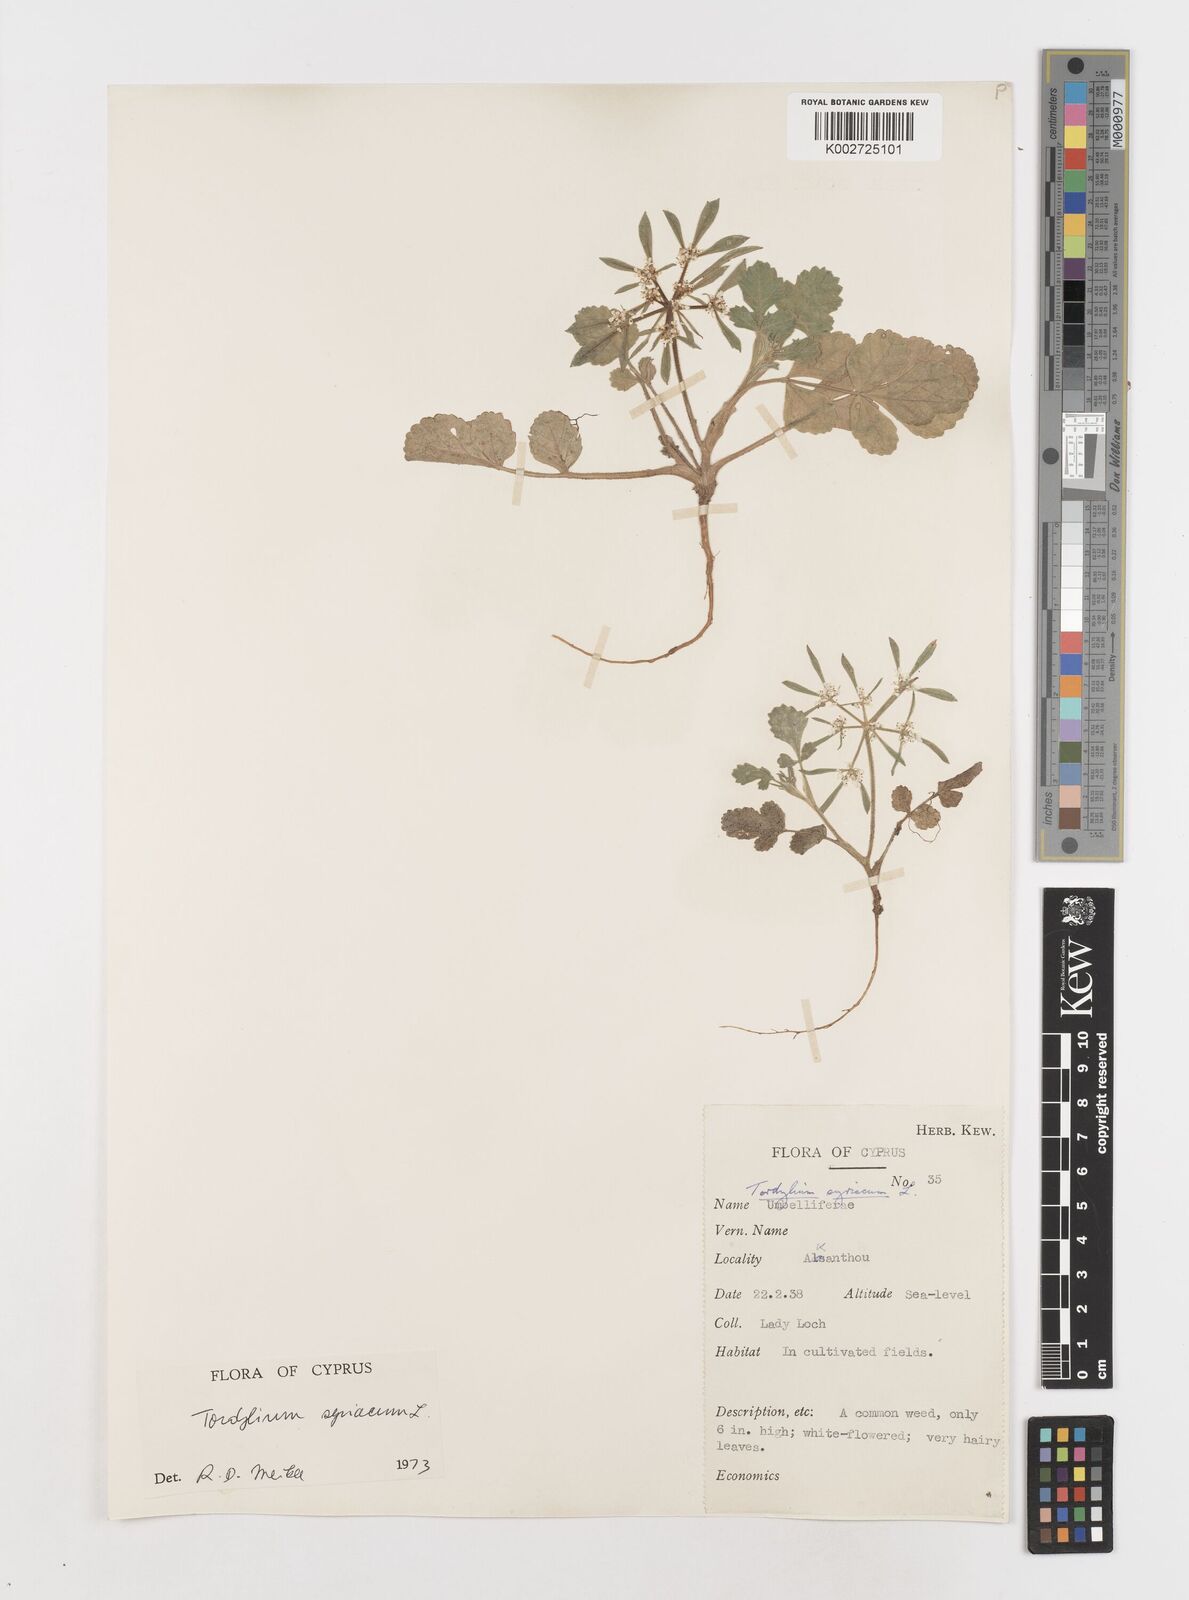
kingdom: Plantae
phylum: Tracheophyta
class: Magnoliopsida
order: Apiales
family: Apiaceae
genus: Tordylium
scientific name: Tordylium syriacum
